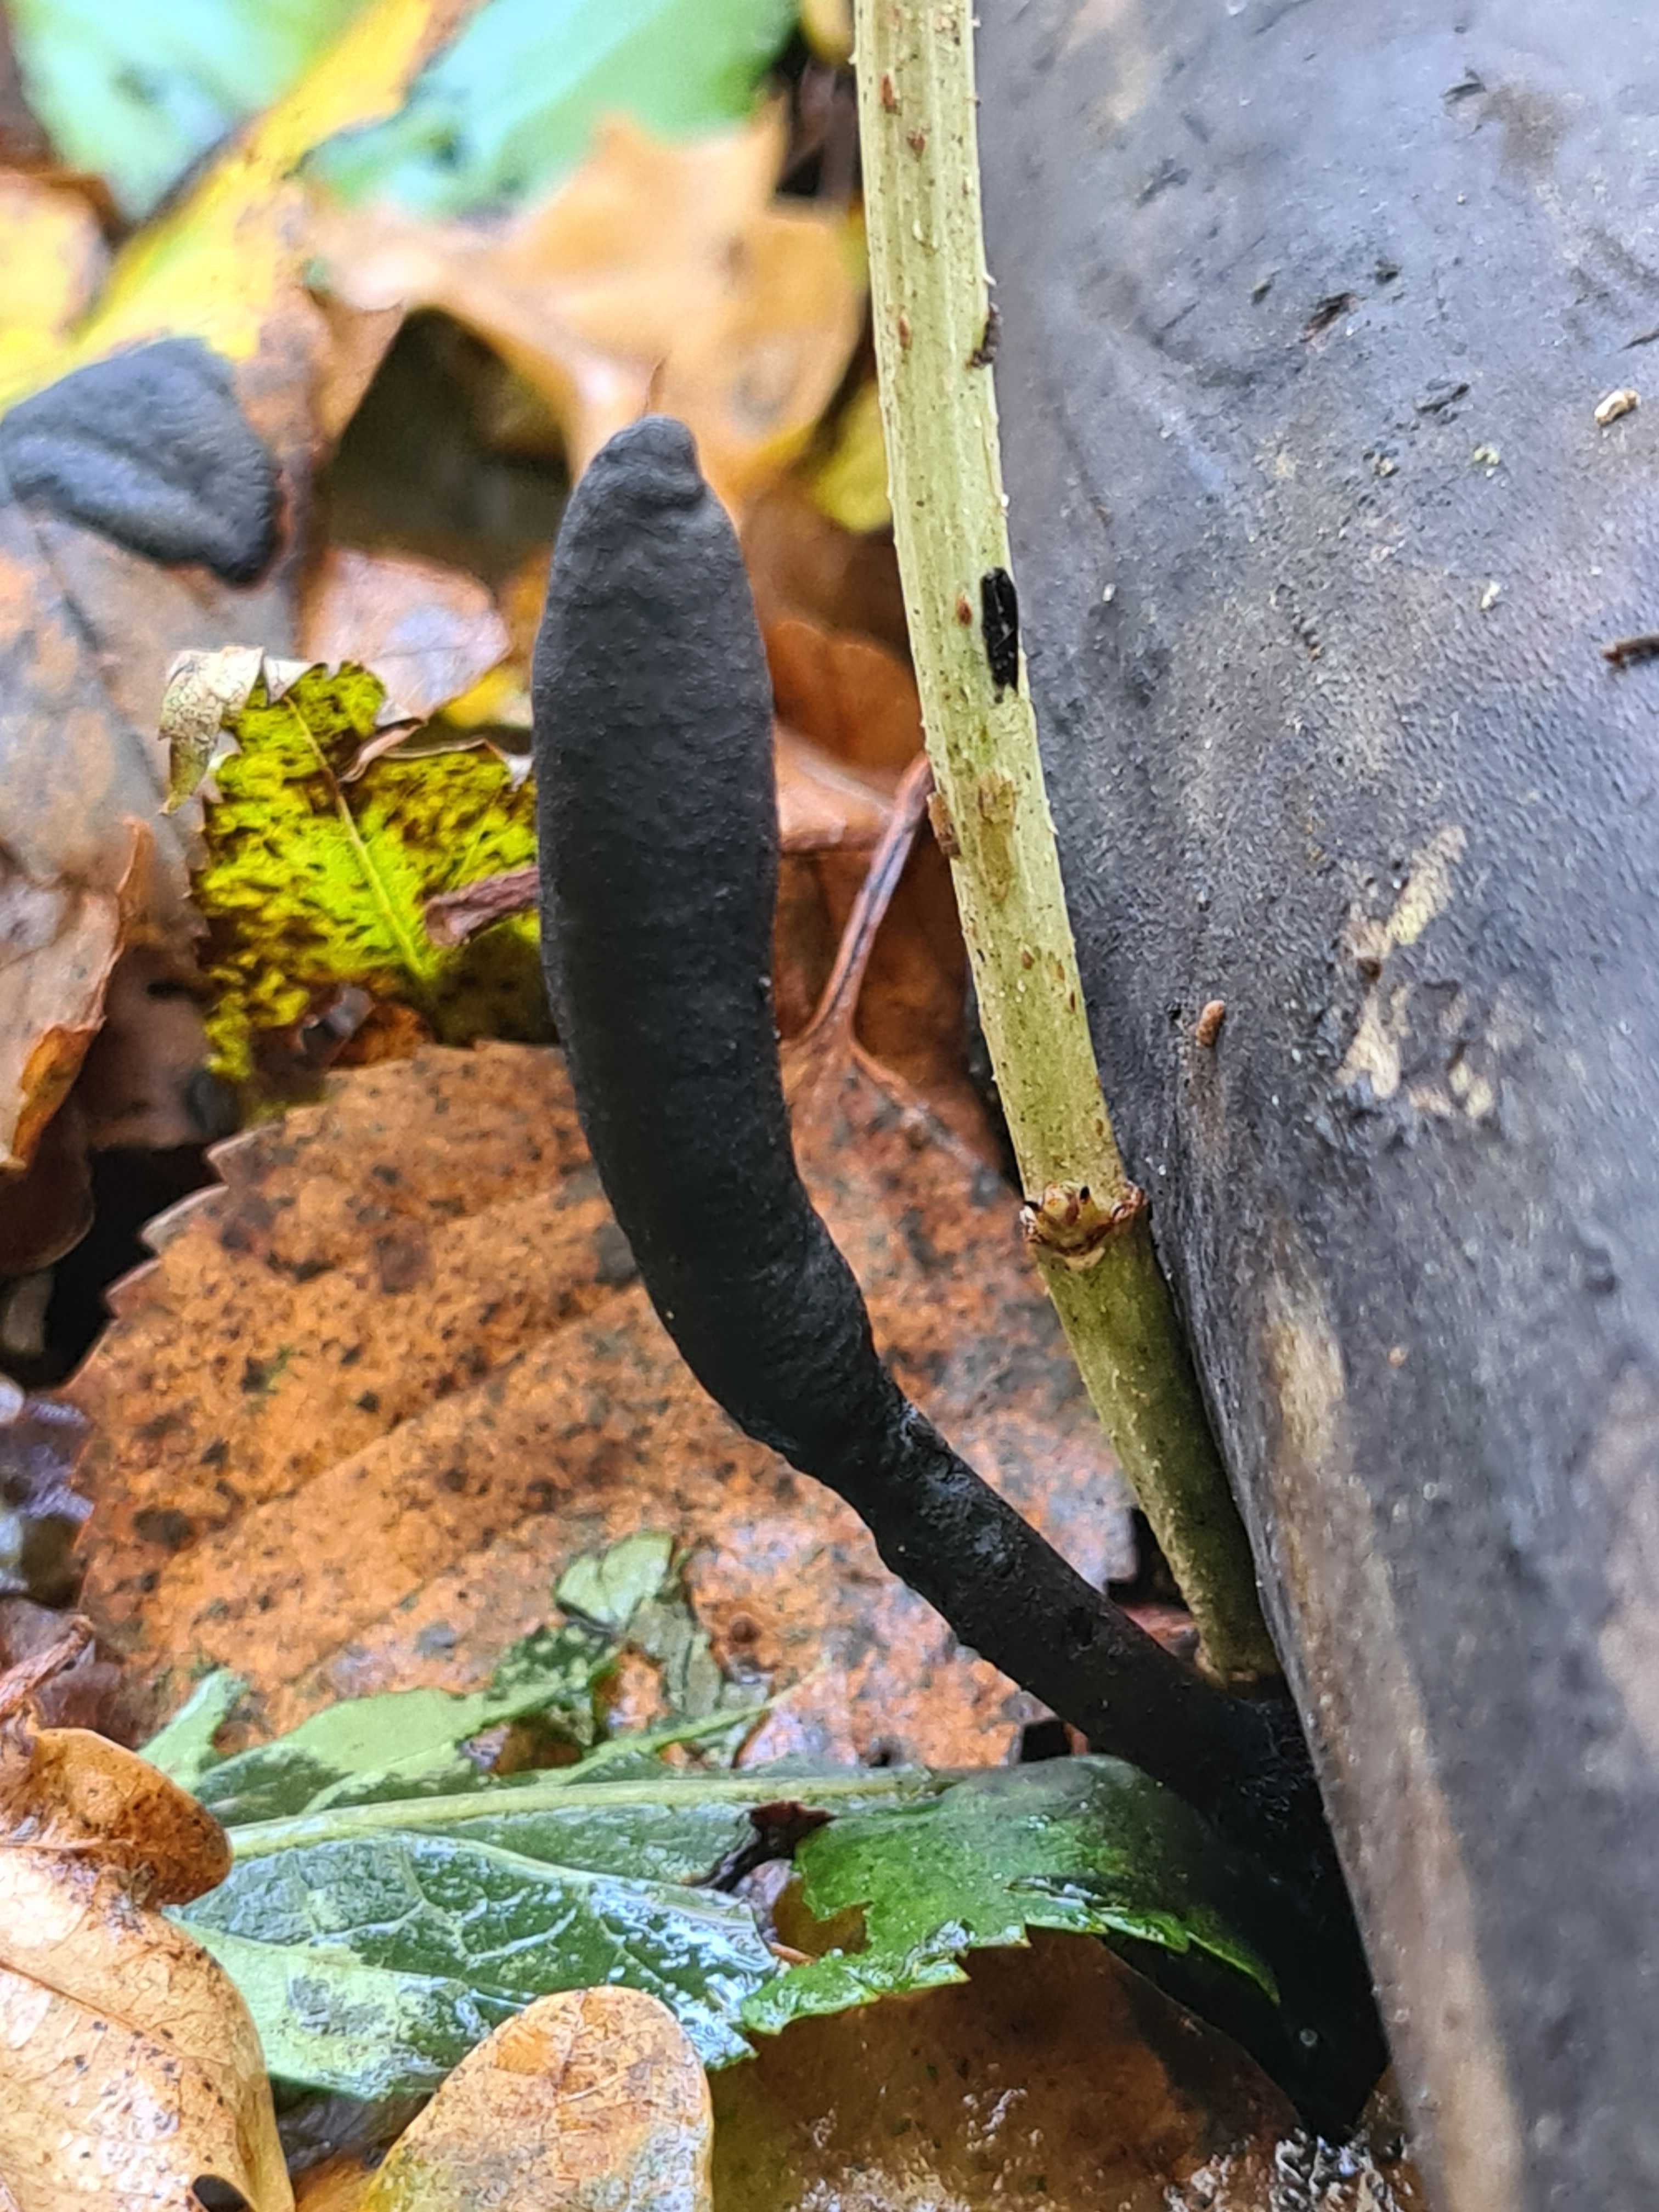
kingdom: Fungi
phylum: Ascomycota
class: Sordariomycetes
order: Xylariales
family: Xylariaceae
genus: Xylaria
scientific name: Xylaria longipes
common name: slank stødsvamp
